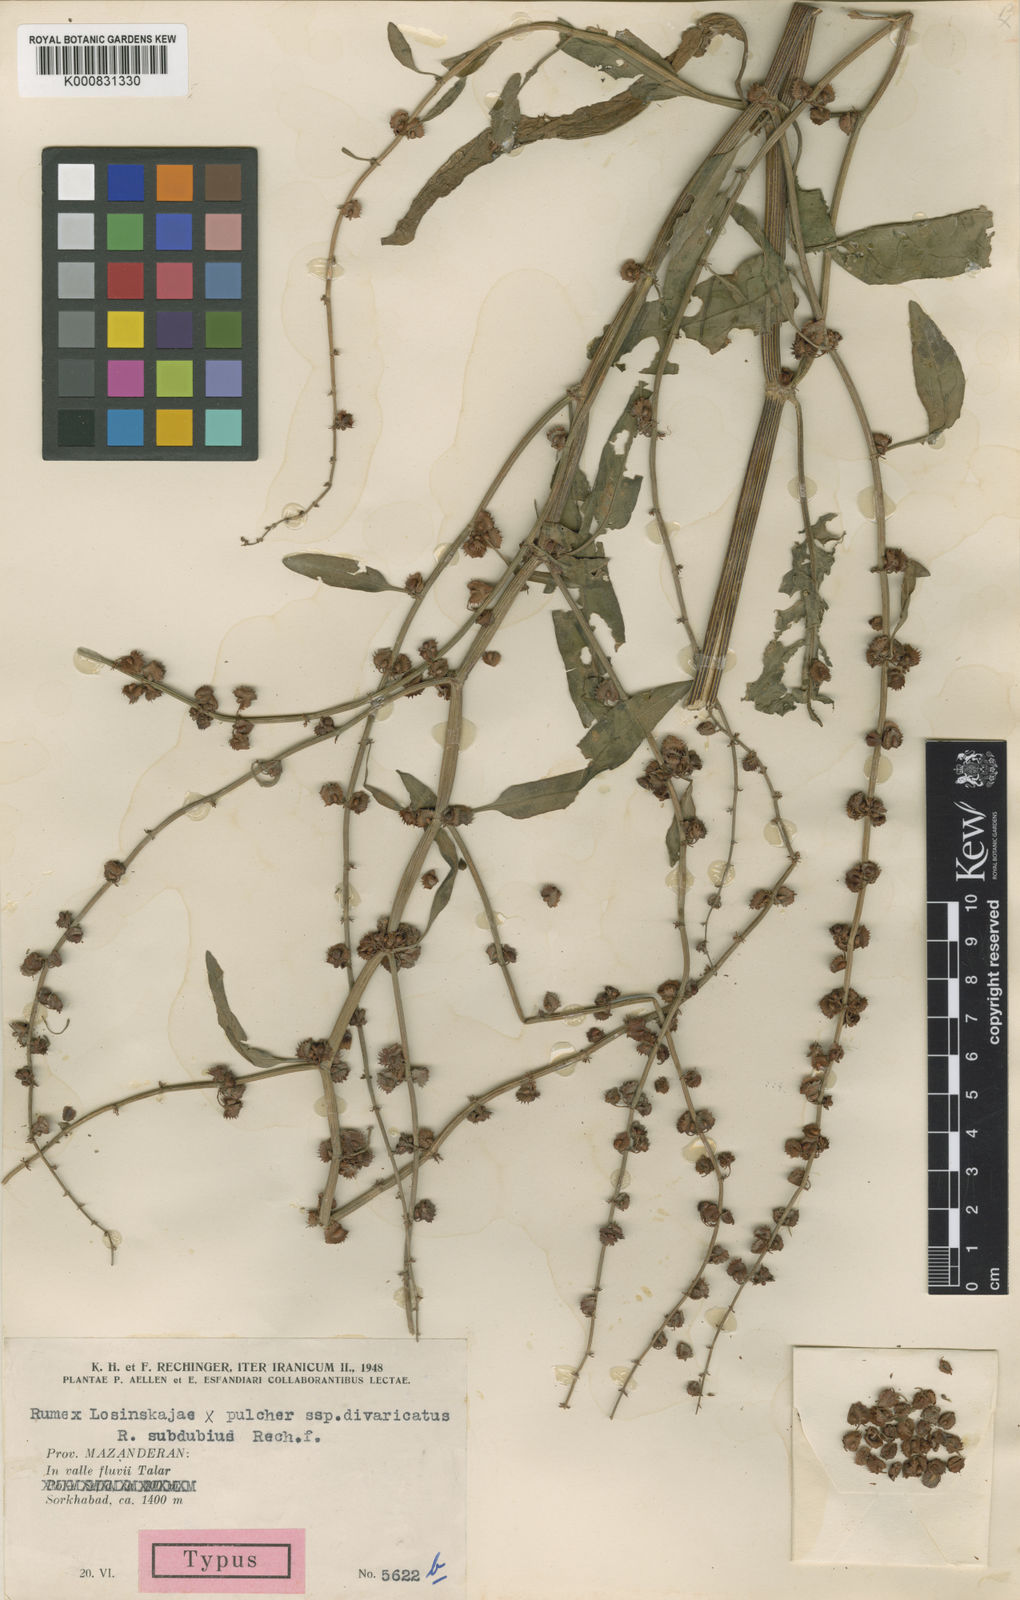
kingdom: Plantae
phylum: Tracheophyta
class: Magnoliopsida
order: Caryophyllales
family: Polygonaceae
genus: Rumex
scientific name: Rumex subdubius
